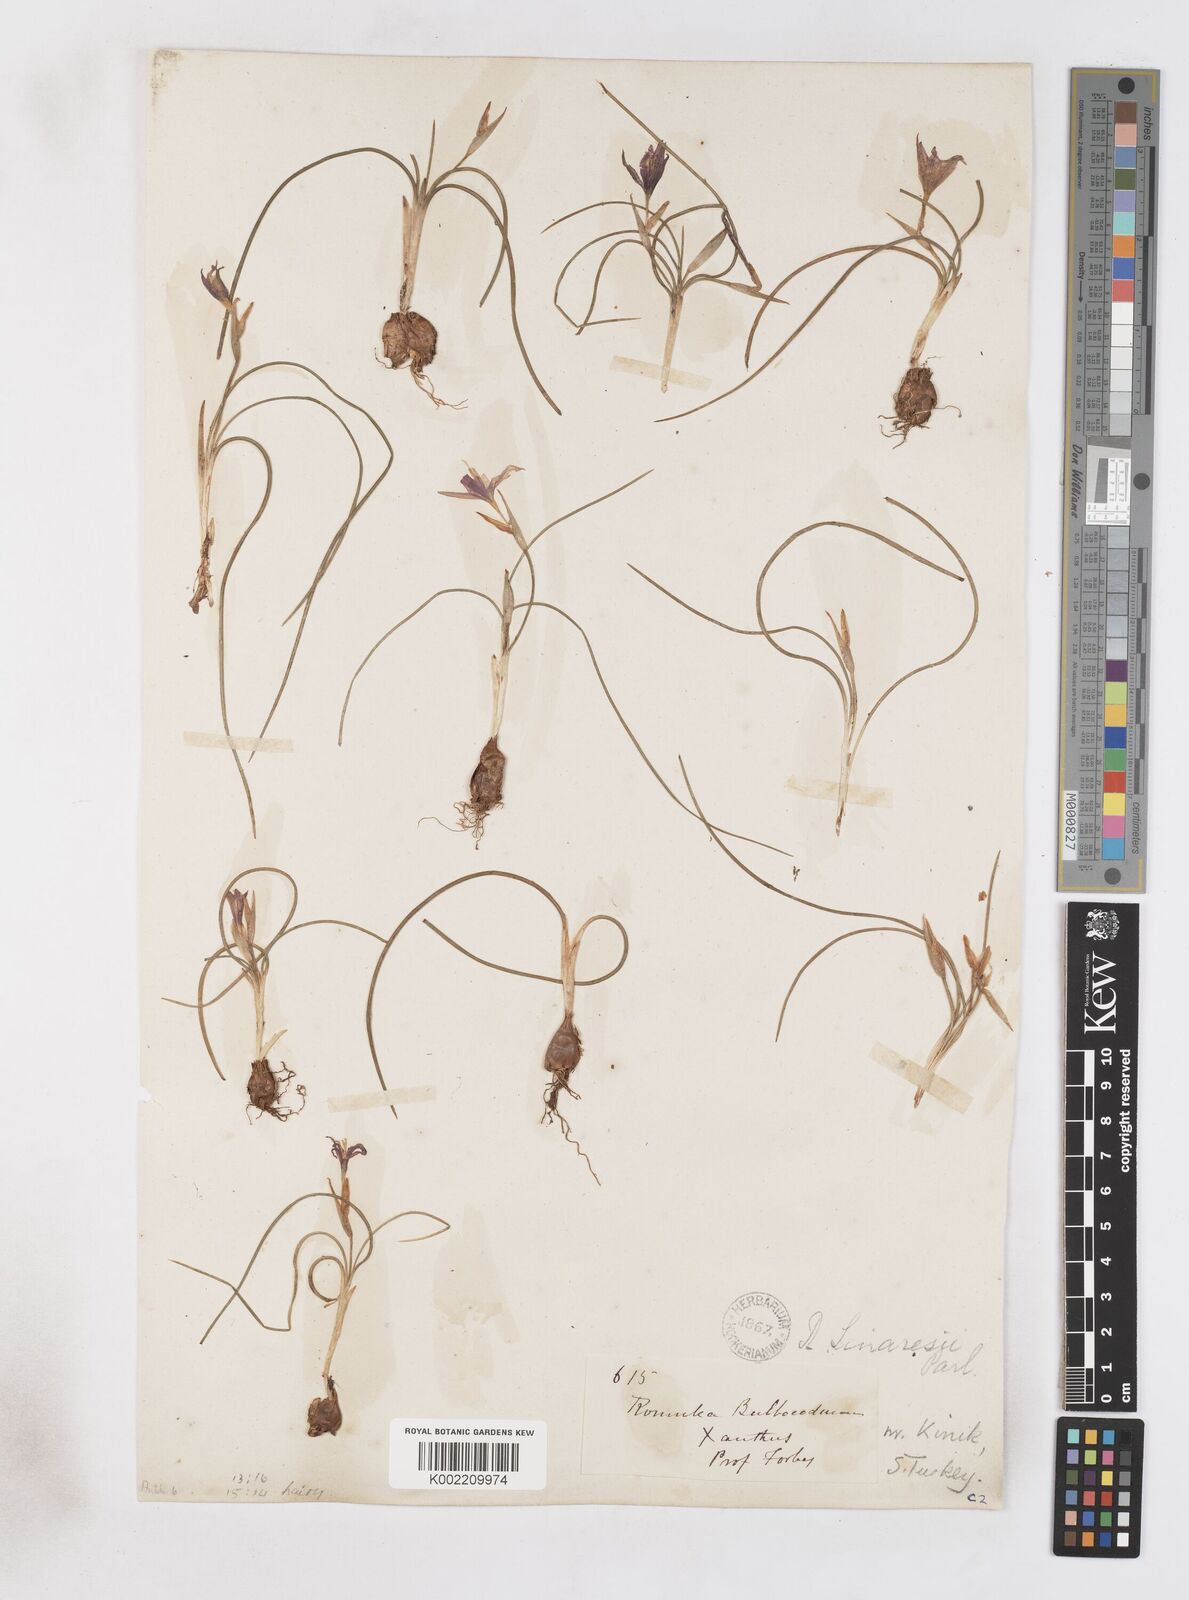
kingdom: Plantae
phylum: Tracheophyta
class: Liliopsida
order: Asparagales
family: Iridaceae
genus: Romulea
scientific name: Romulea tempskyana
